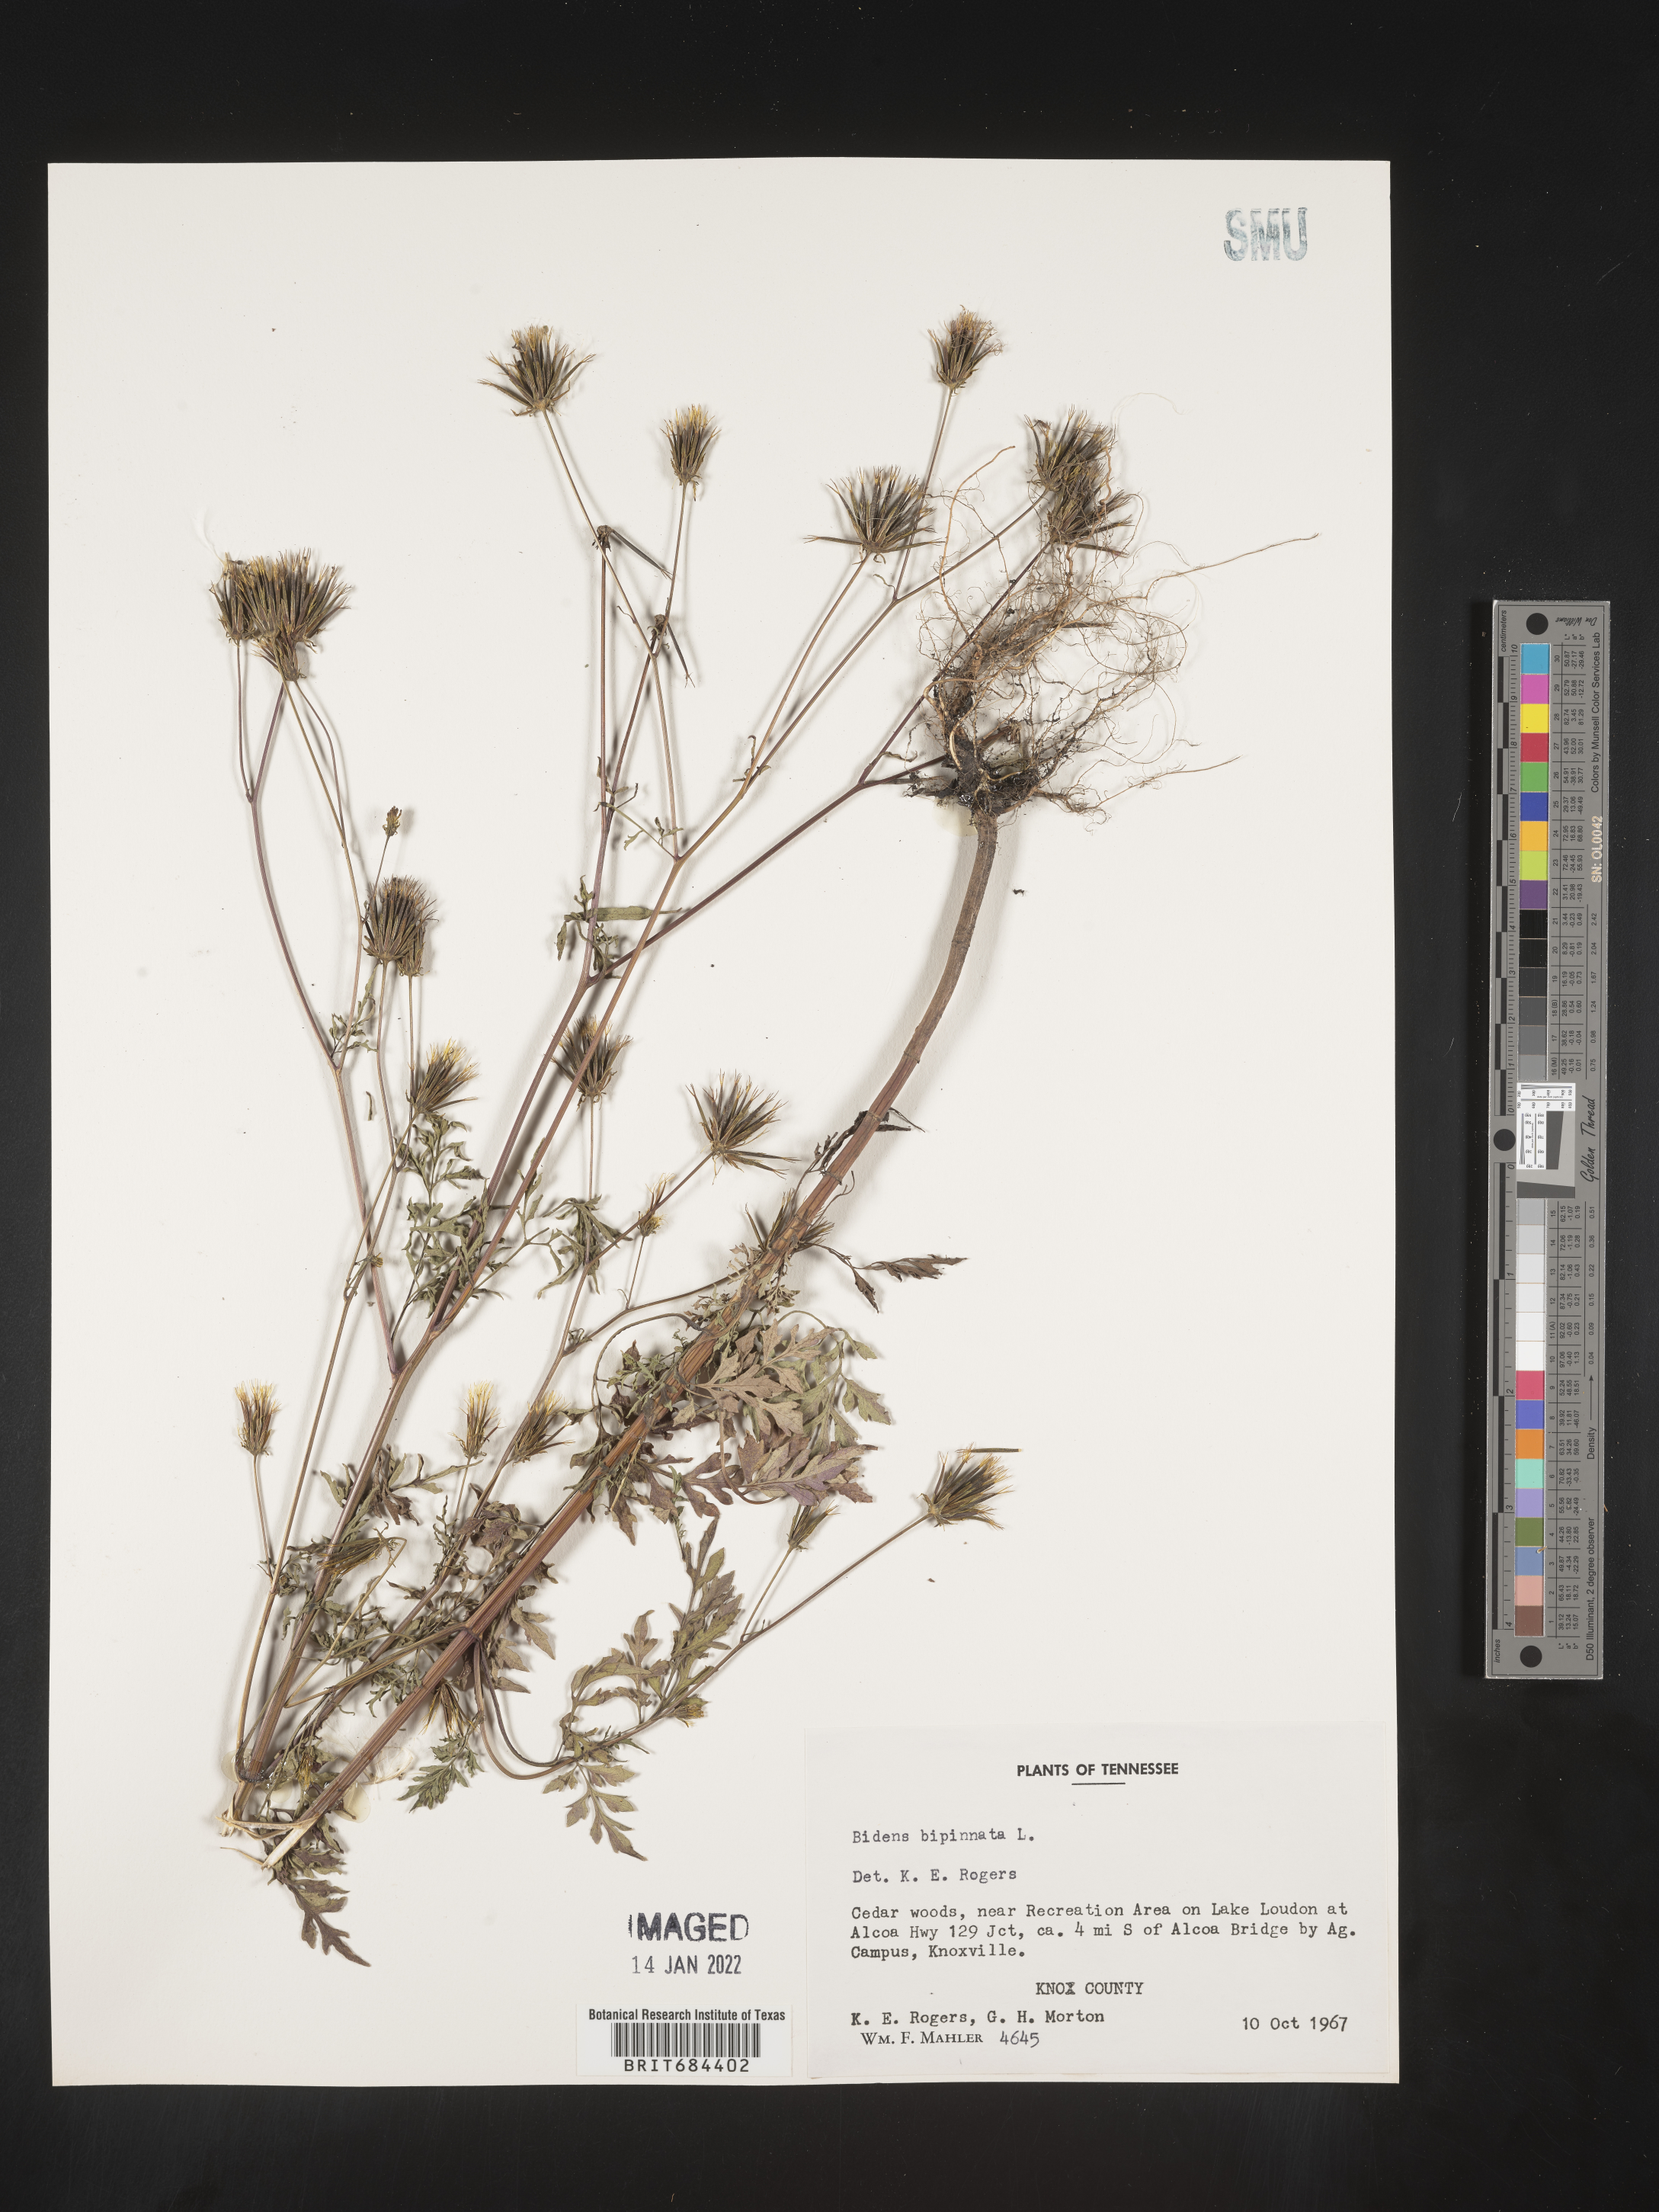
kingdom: Plantae
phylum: Tracheophyta
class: Magnoliopsida
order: Asterales
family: Asteraceae
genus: Bidens
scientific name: Bidens bipinnata
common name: Spanish-needles
